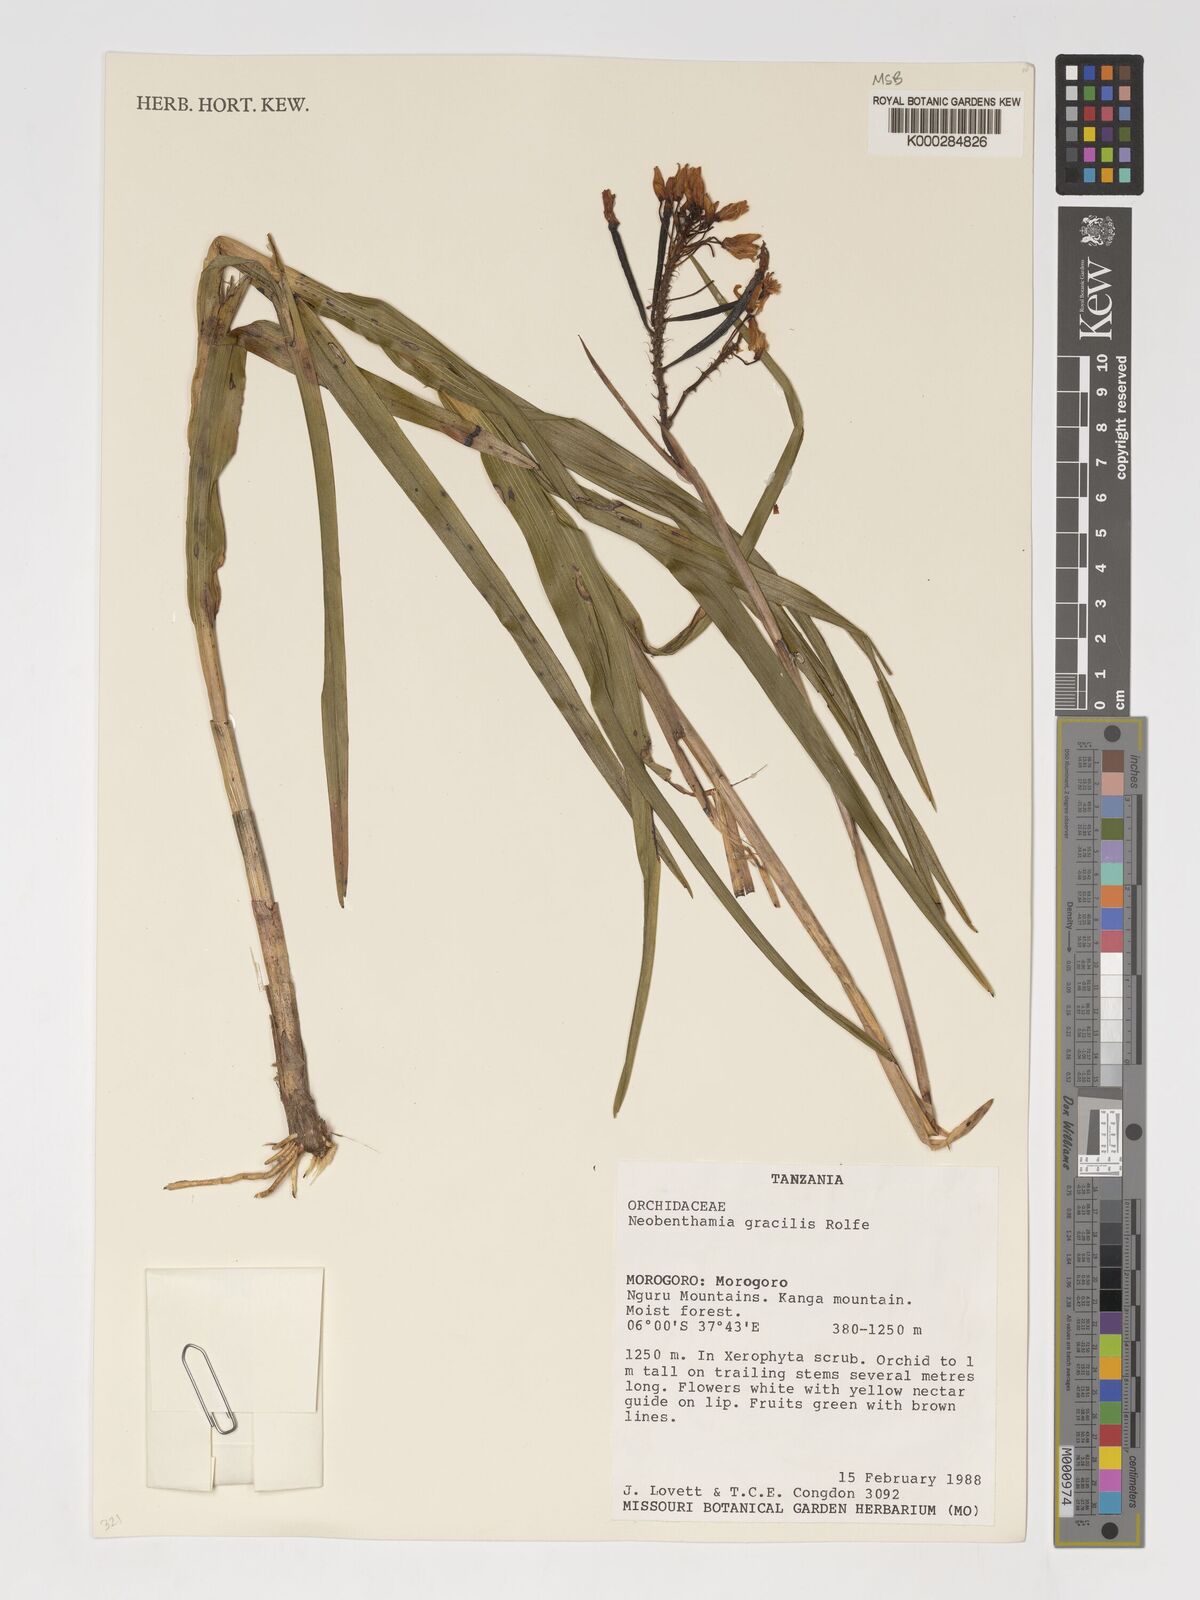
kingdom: Plantae
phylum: Tracheophyta
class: Liliopsida
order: Asparagales
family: Orchidaceae
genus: Polystachya
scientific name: Polystachya neobenthamia
